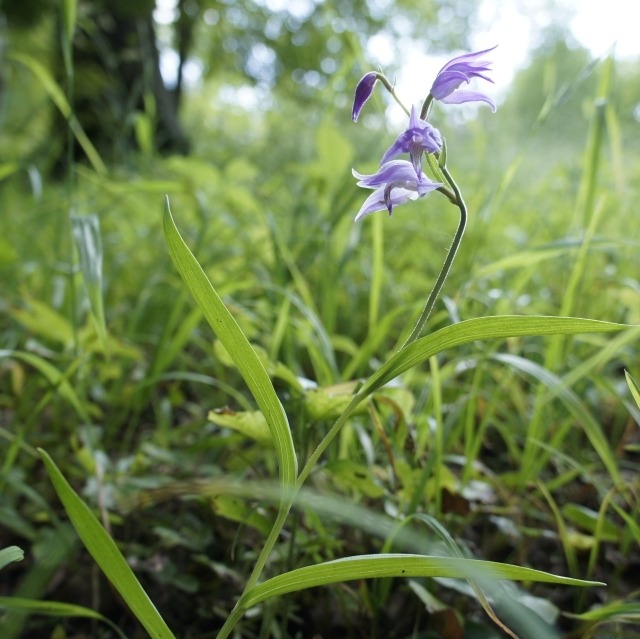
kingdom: Plantae
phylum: Tracheophyta
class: Liliopsida
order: Asparagales
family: Orchidaceae
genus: Cephalanthera
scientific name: Cephalanthera rubra
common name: Rød skovlilje
